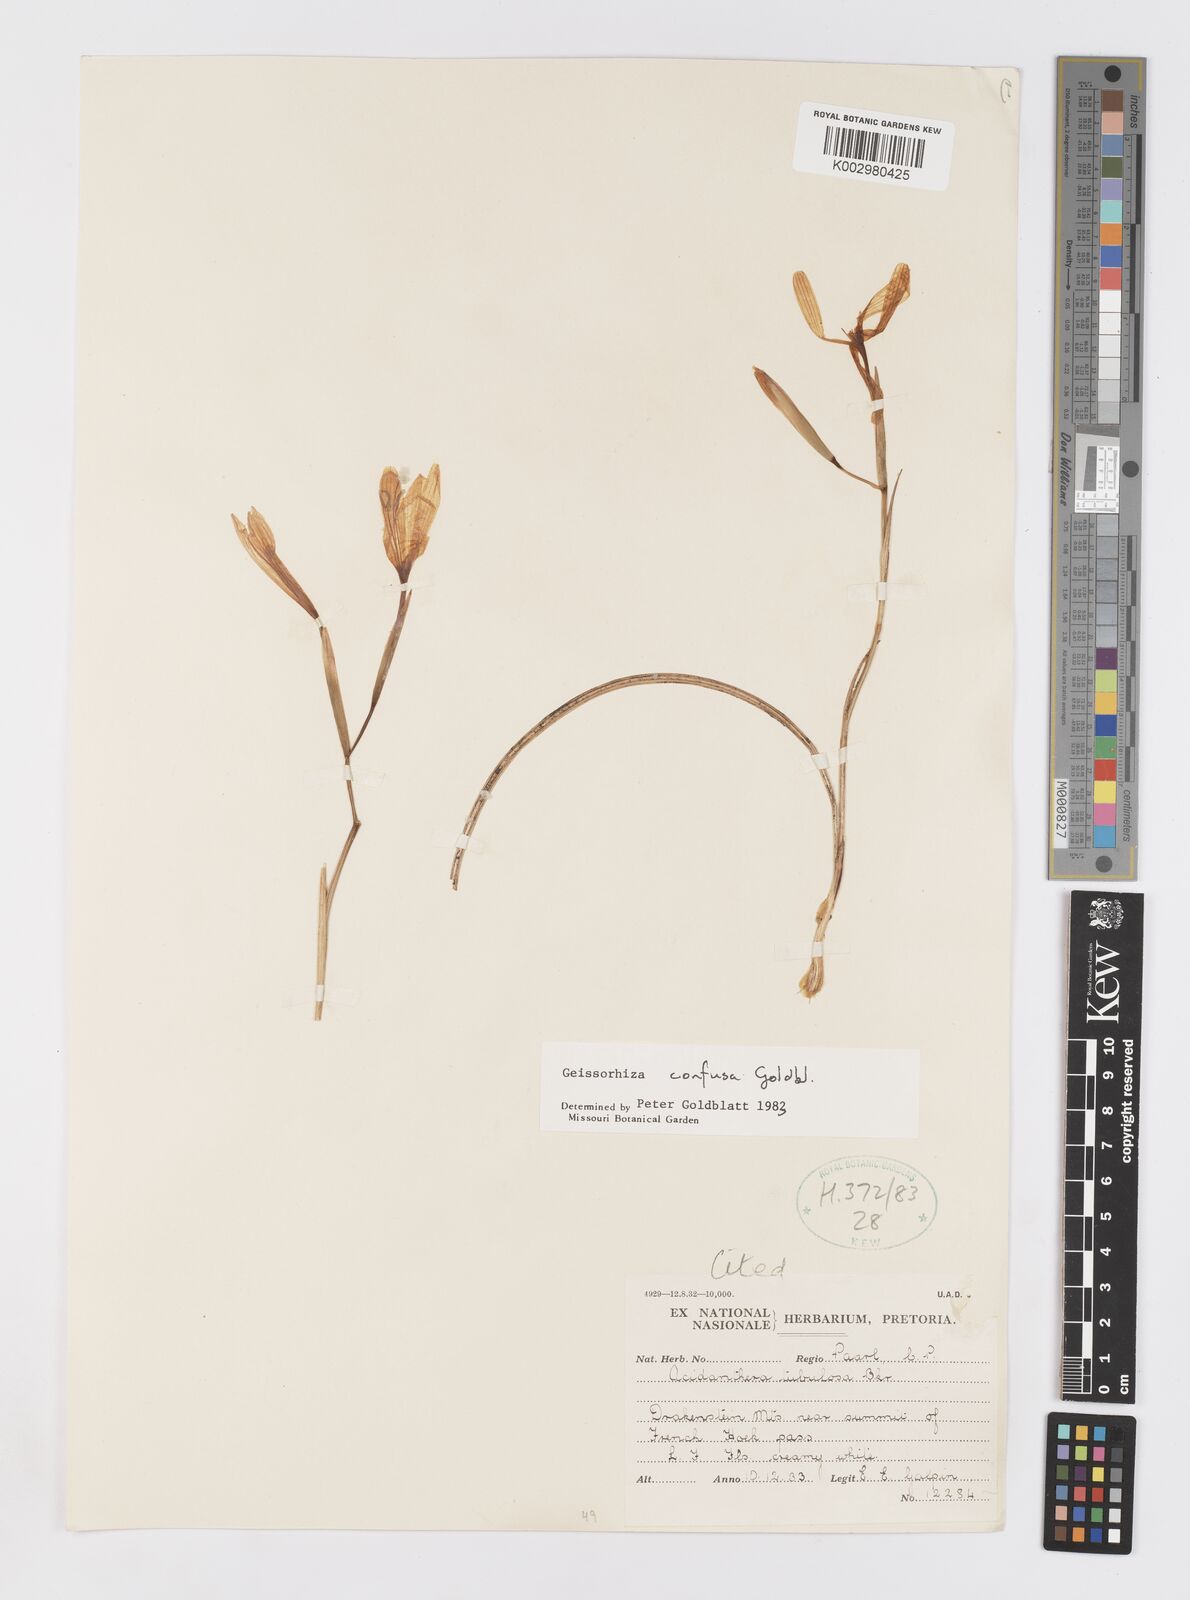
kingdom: Plantae
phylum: Tracheophyta
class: Liliopsida
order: Asparagales
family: Iridaceae
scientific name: Iridaceae
